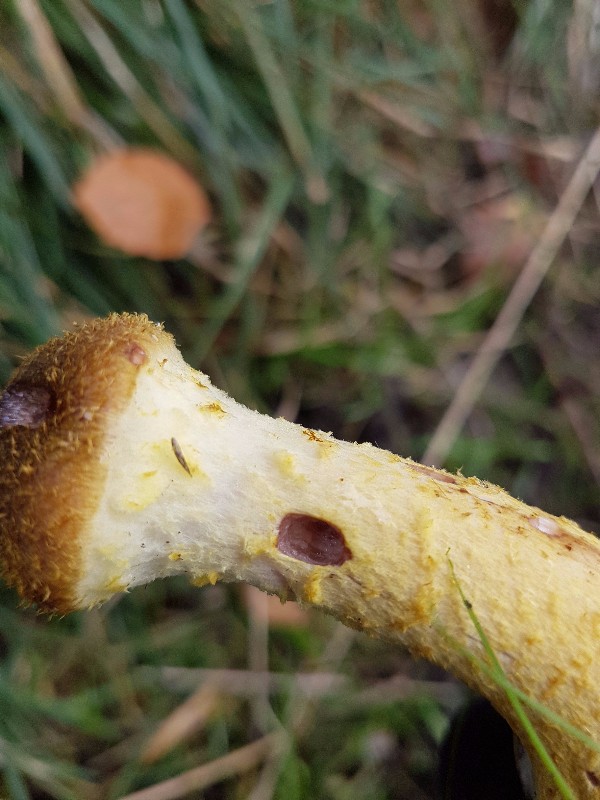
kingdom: Fungi
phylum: Basidiomycota
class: Agaricomycetes
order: Agaricales
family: Physalacriaceae
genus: Armillaria
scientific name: Armillaria
